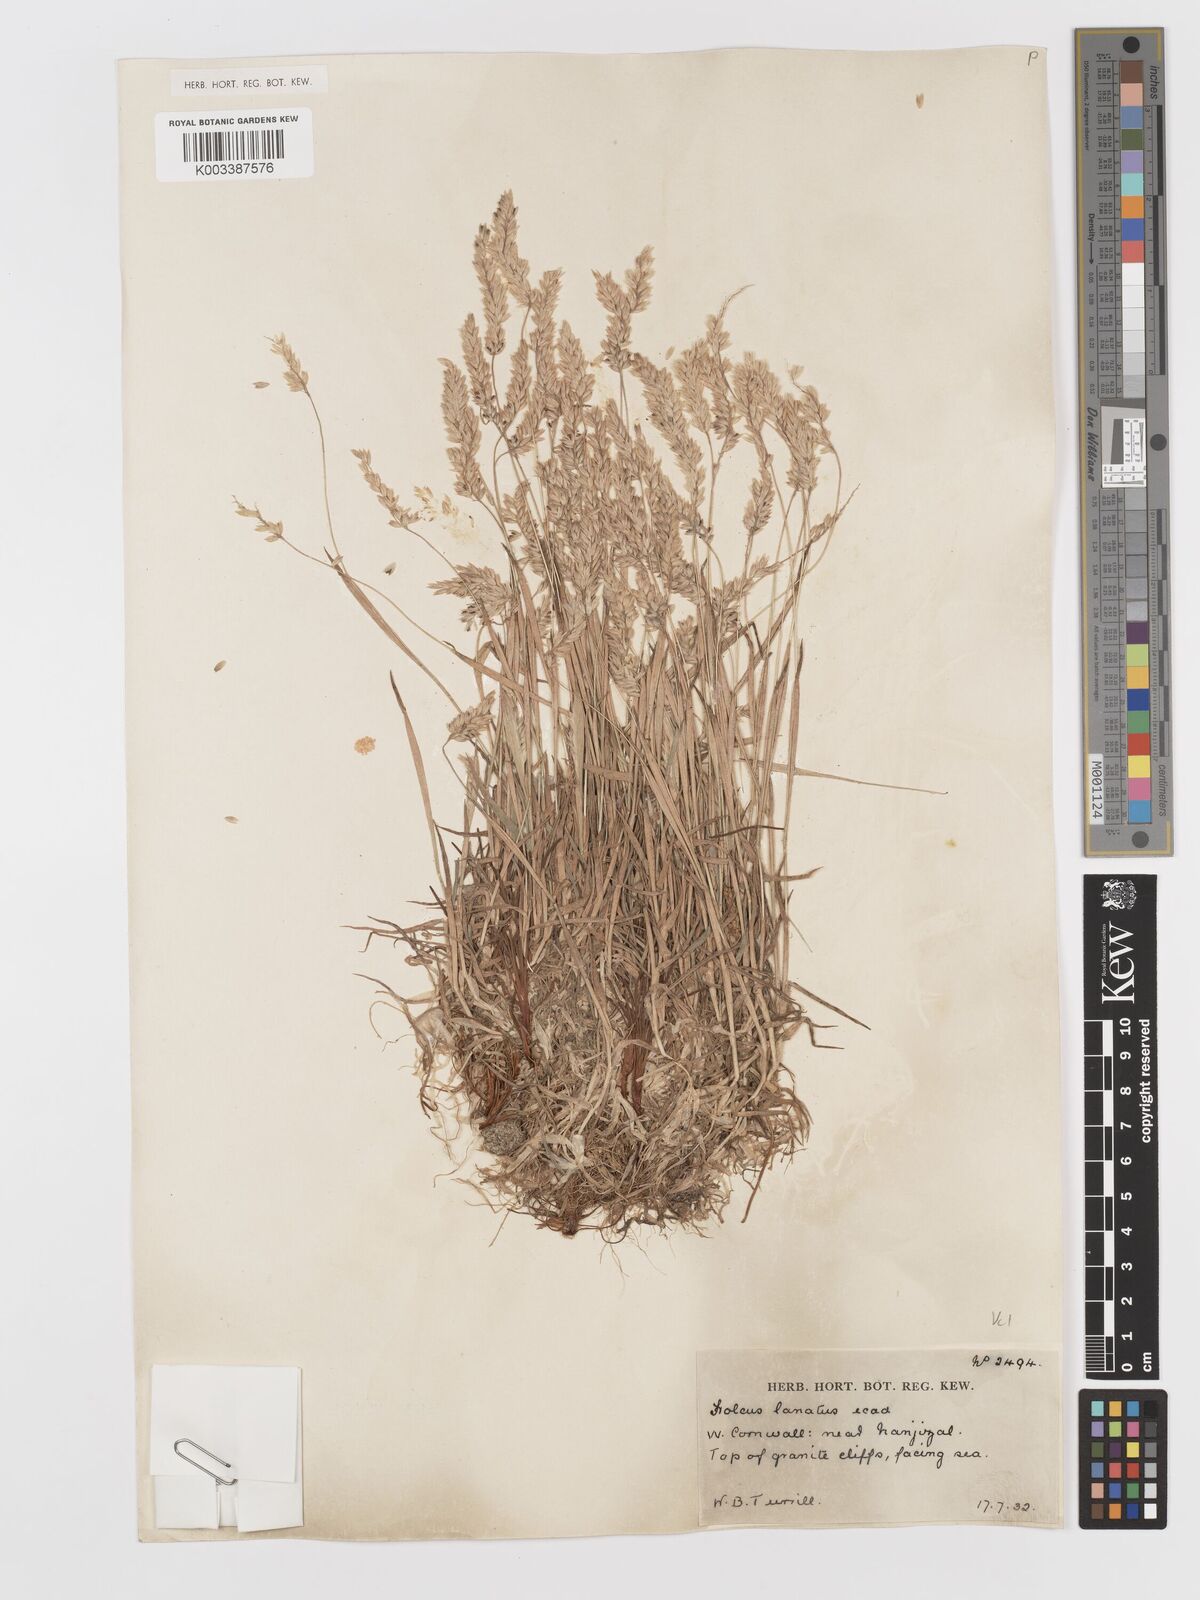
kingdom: Plantae
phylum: Tracheophyta
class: Liliopsida
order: Poales
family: Poaceae
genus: Holcus
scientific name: Holcus lanatus
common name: Yorkshire-fog
